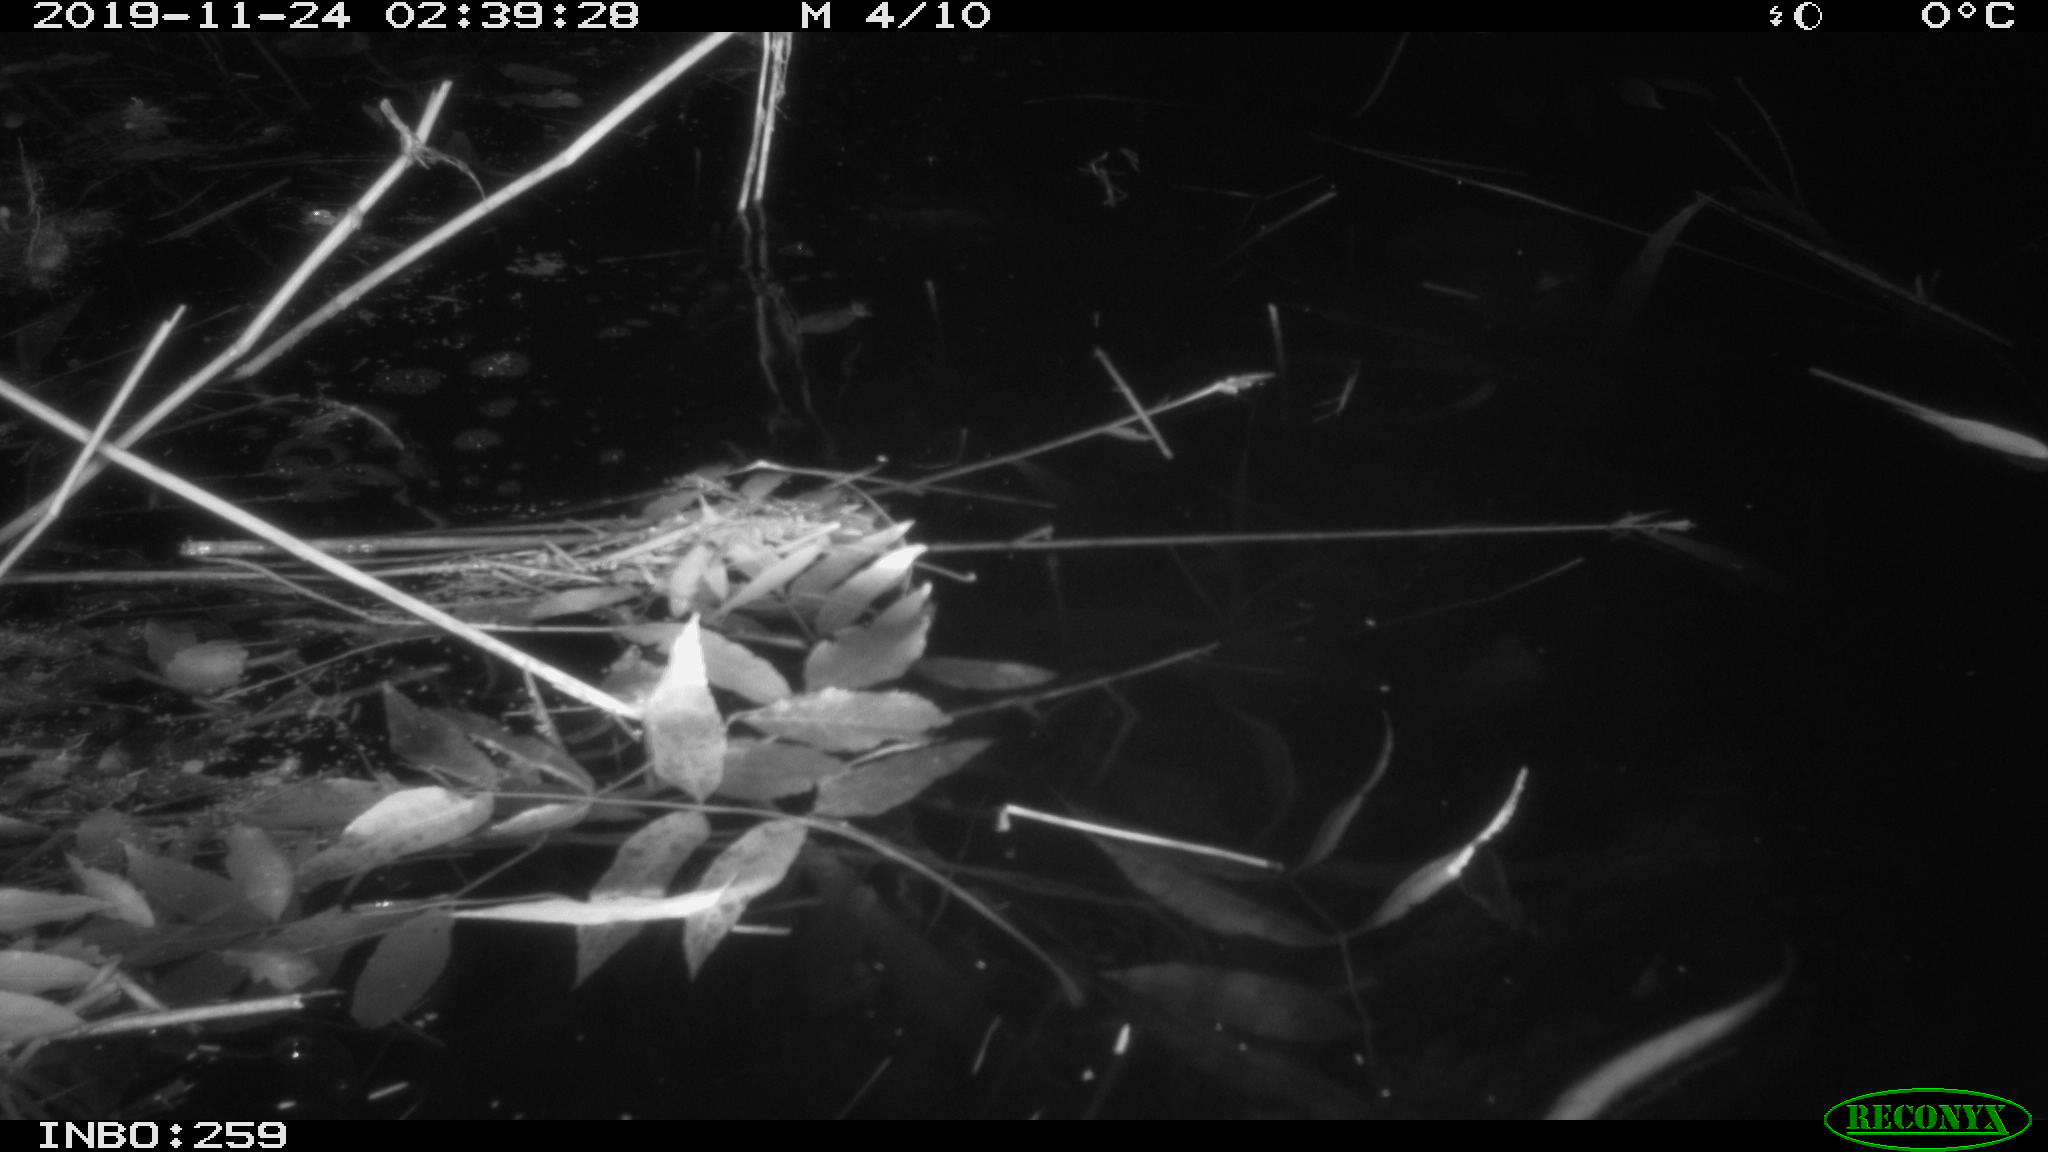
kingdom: Animalia
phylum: Chordata
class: Mammalia
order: Rodentia
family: Cricetidae
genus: Ondatra
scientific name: Ondatra zibethicus
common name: Muskrat
